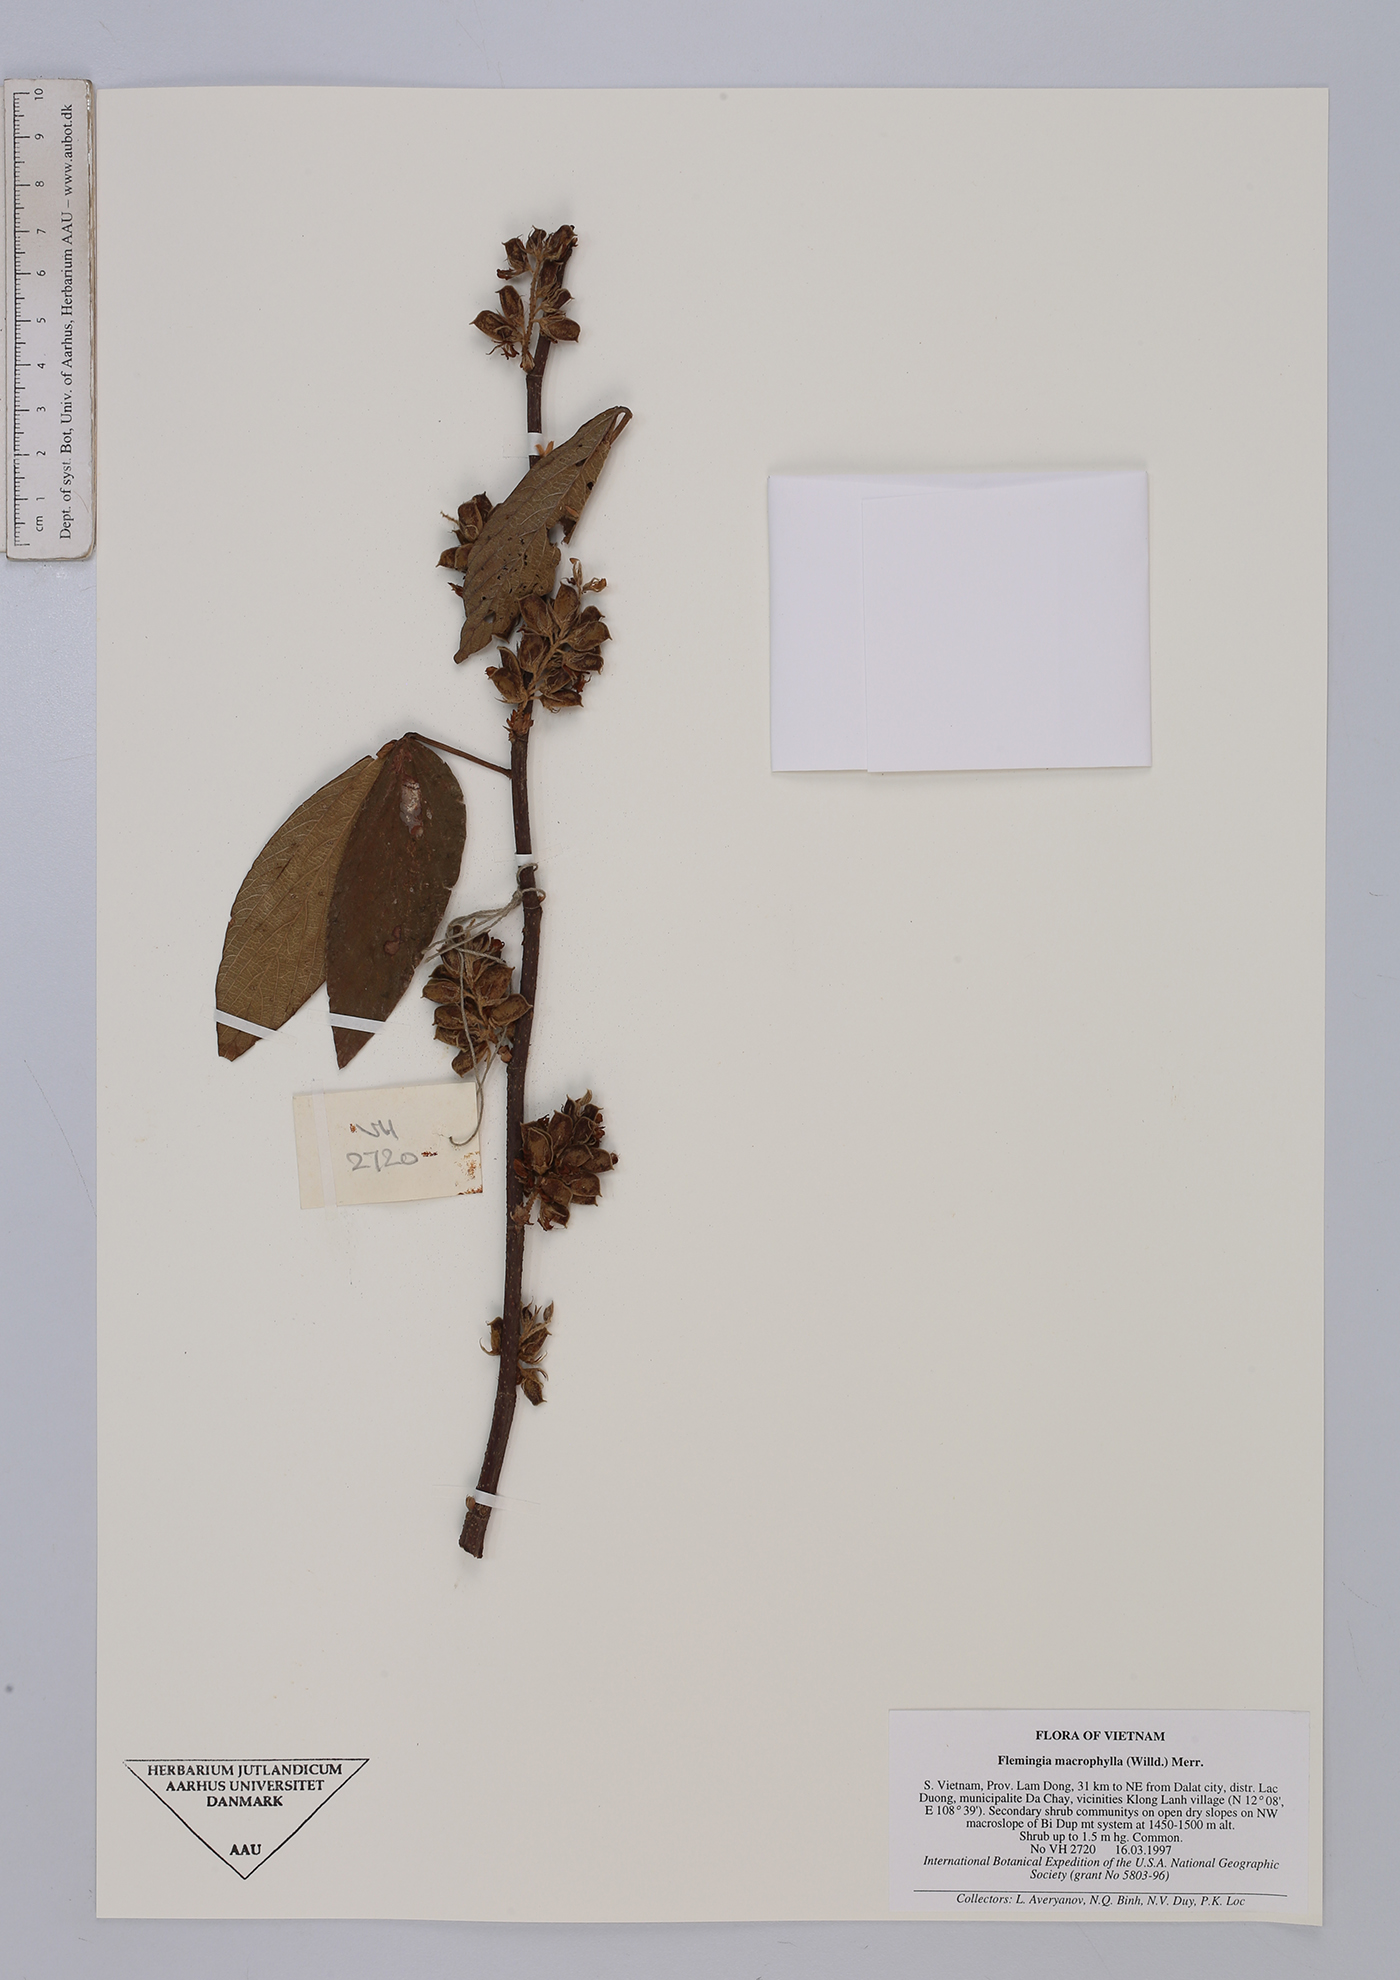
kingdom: Plantae
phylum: Tracheophyta
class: Magnoliopsida
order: Fabales
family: Fabaceae
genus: Flemingia
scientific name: Flemingia macrophylla
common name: Flemingia
